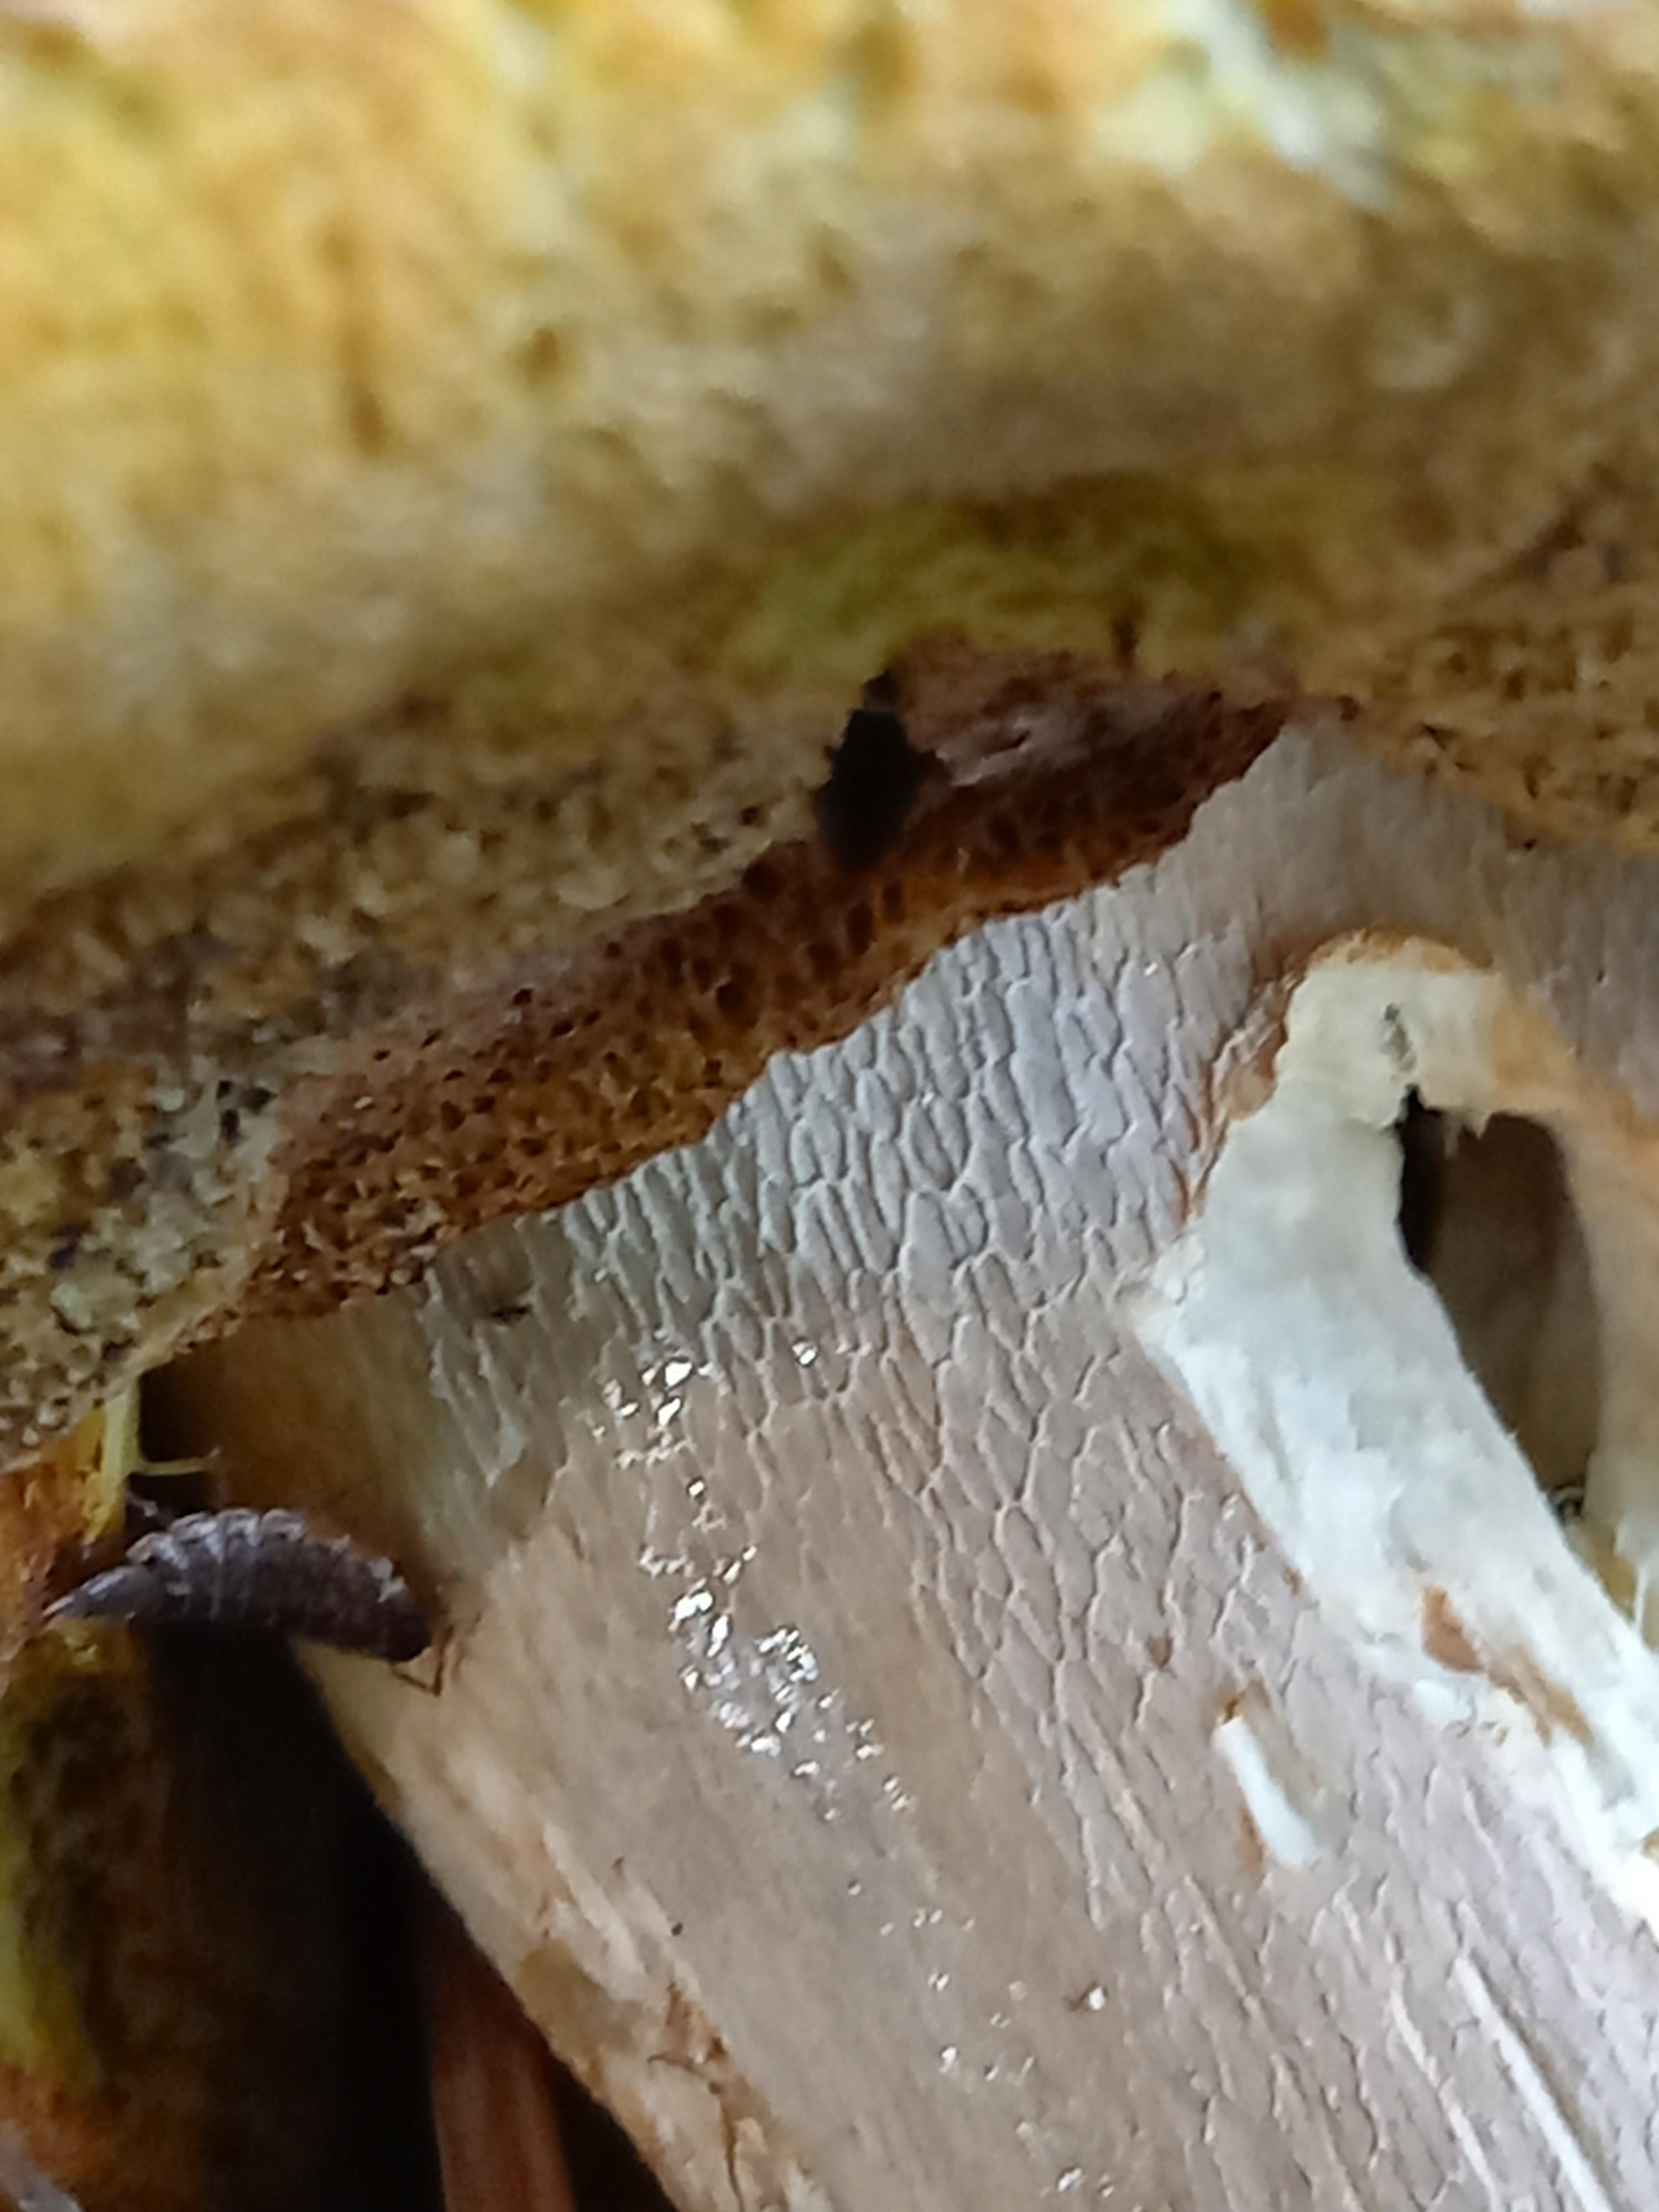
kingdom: Fungi
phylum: Basidiomycota
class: Agaricomycetes
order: Boletales
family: Boletaceae
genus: Boletus
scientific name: Boletus reticulatus
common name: sommer-rørhat
